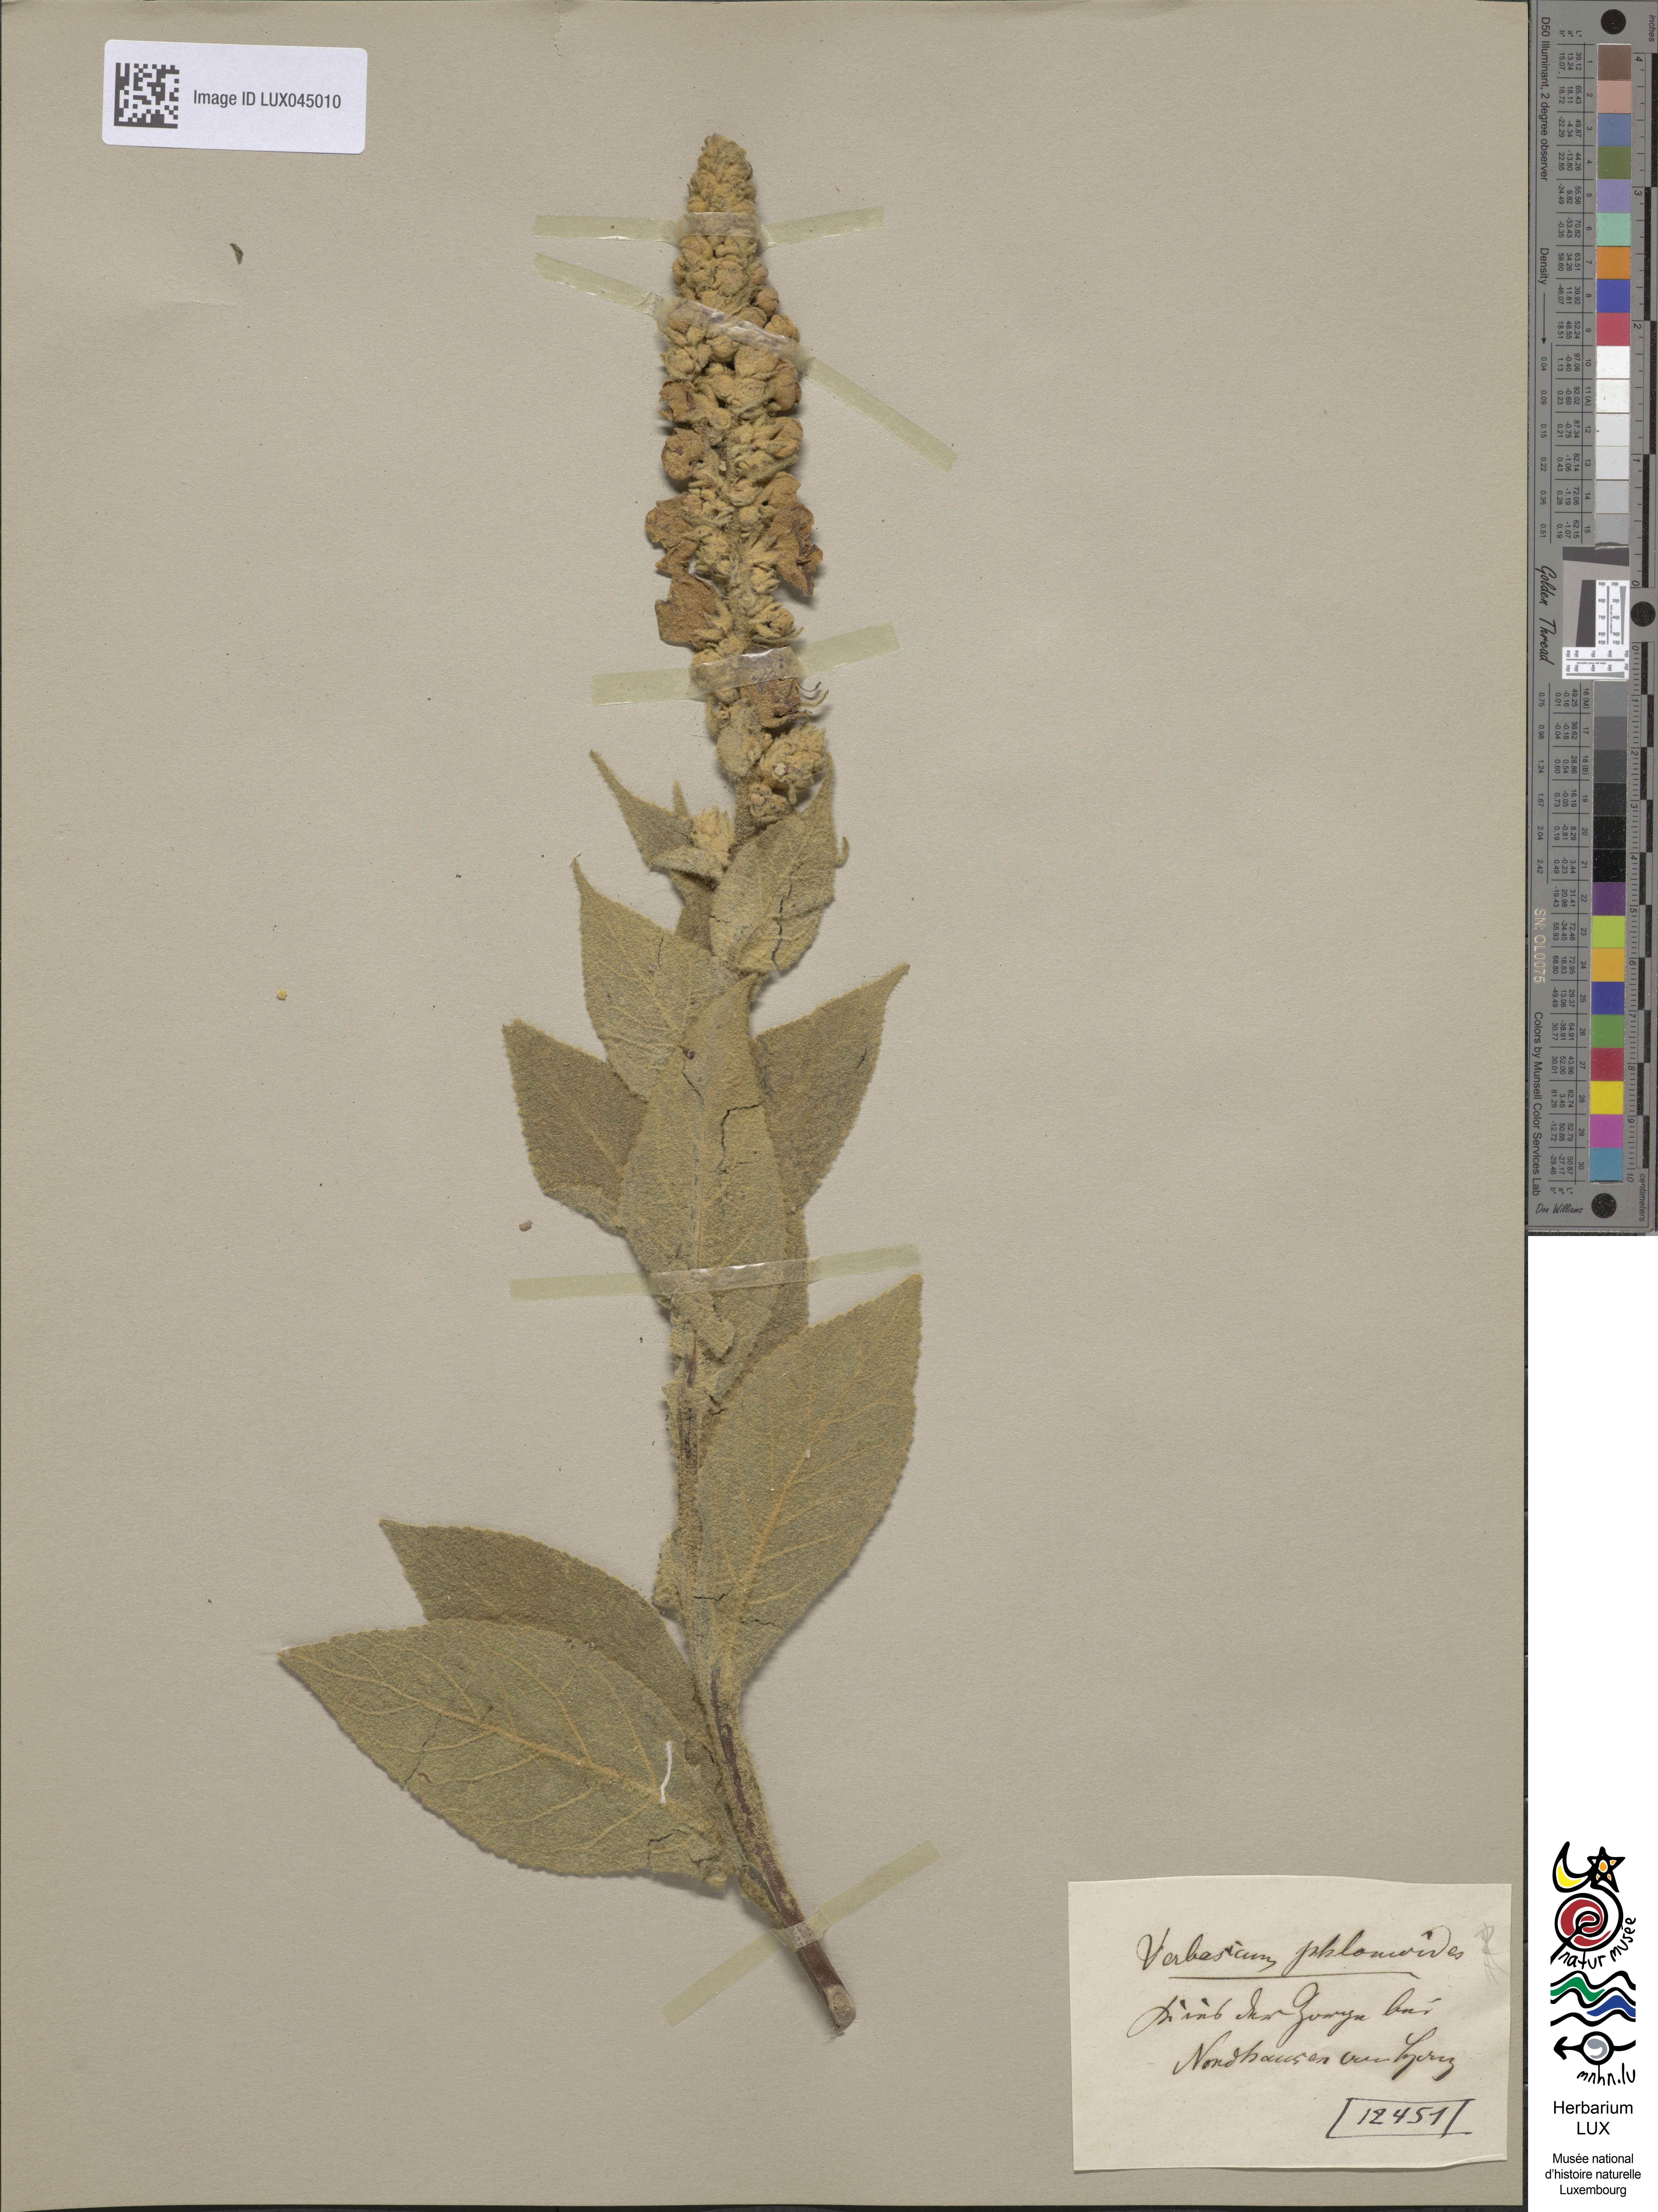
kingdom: Plantae
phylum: Tracheophyta
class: Magnoliopsida
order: Lamiales
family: Scrophulariaceae
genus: Verbascum
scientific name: Verbascum phlomoides
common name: Orange mullein
